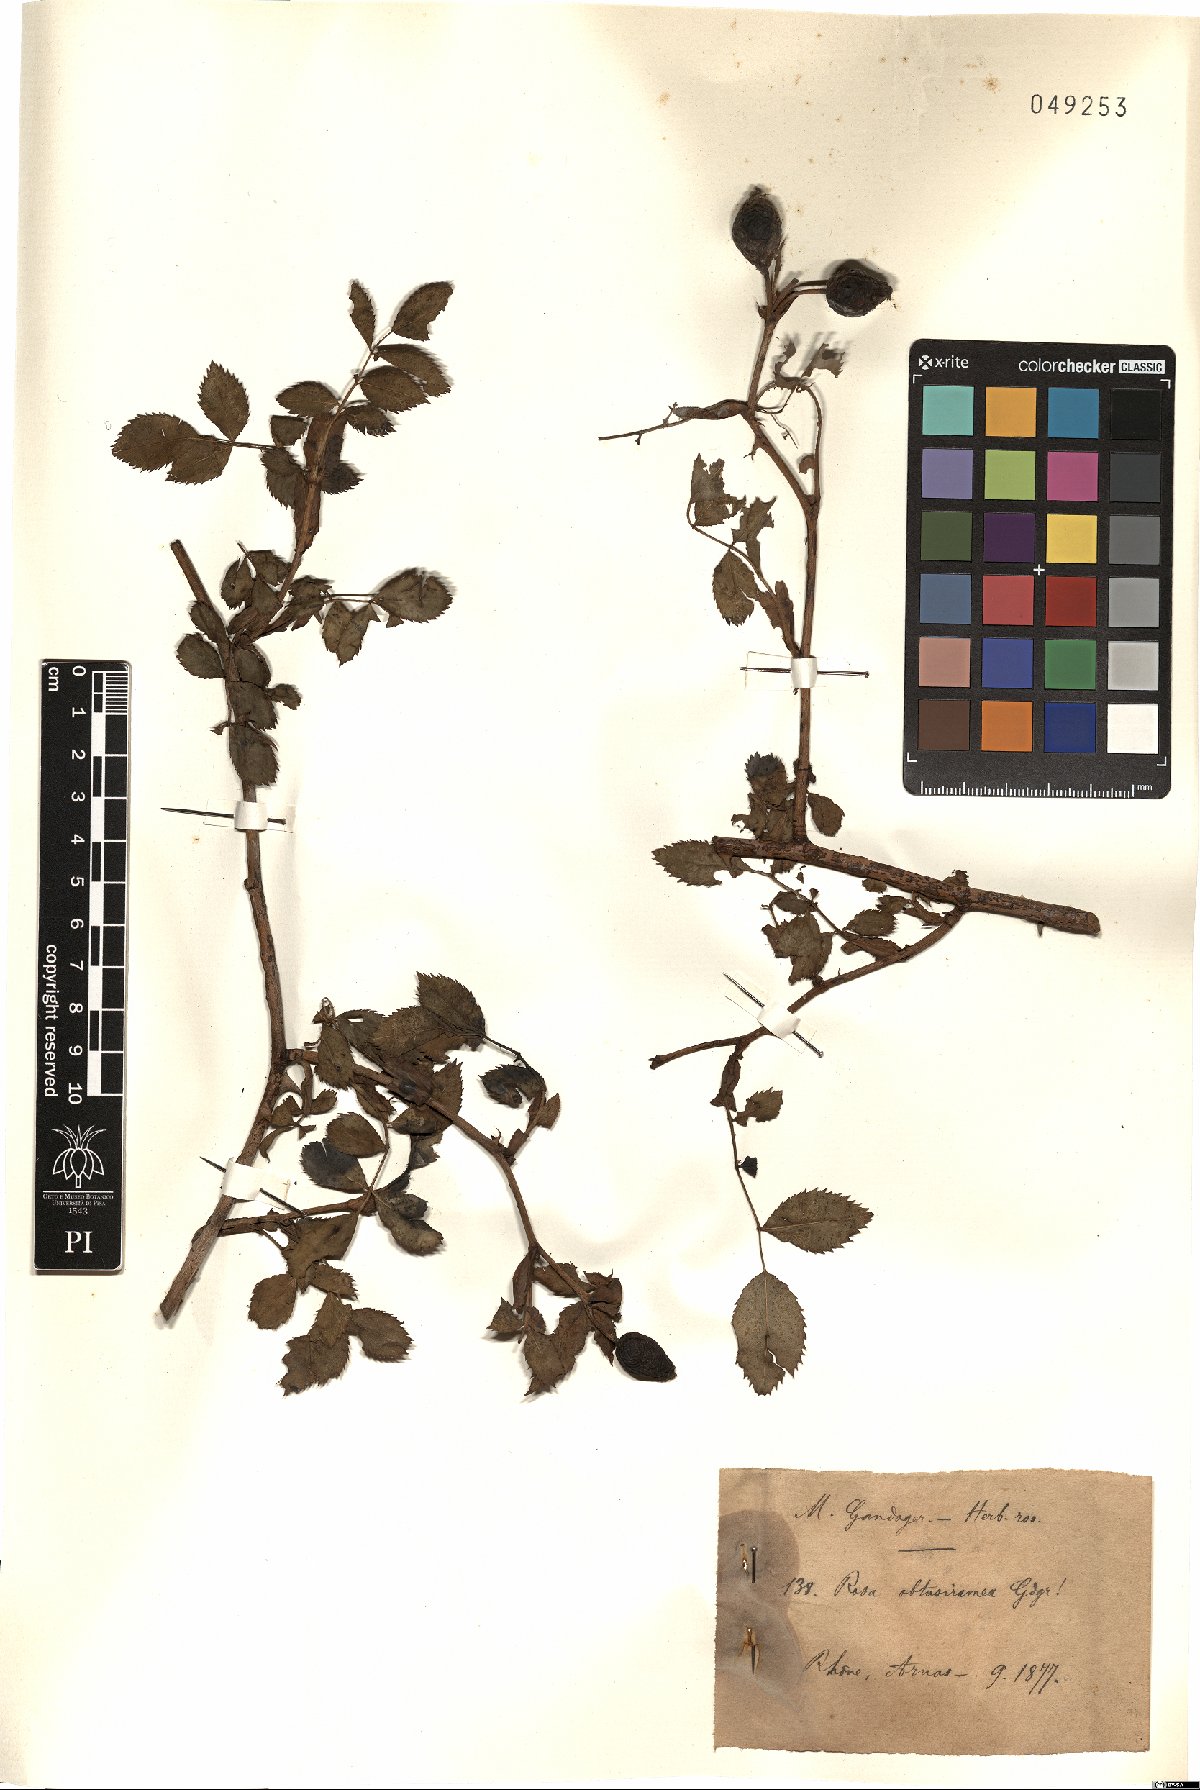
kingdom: Plantae
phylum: Tracheophyta
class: Magnoliopsida
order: Rosales
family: Rosaceae
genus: Rosa
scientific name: Rosa obtusiramea
